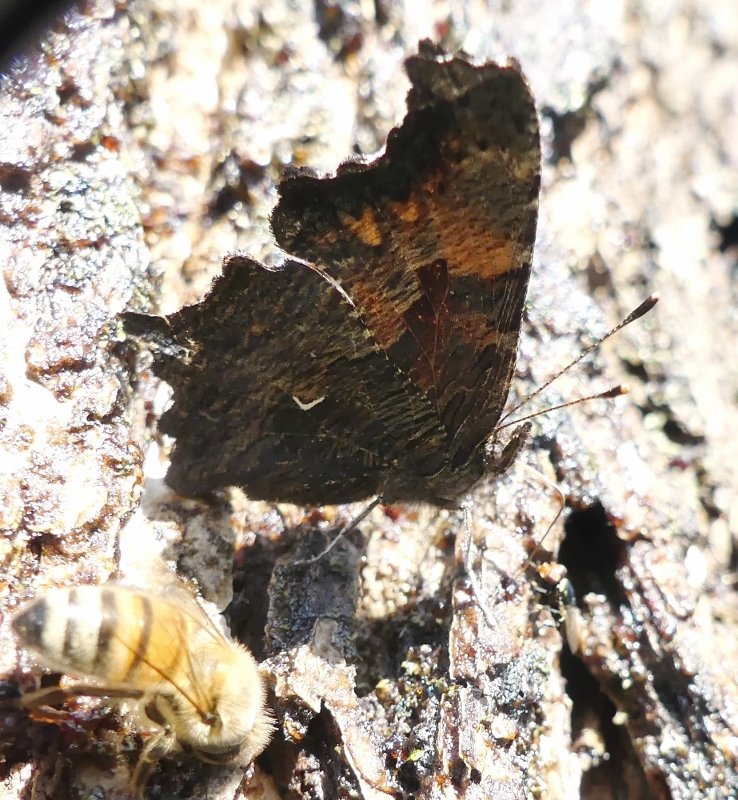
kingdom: Animalia
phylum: Arthropoda
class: Insecta
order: Lepidoptera
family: Nymphalidae
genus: Polygonia
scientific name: Polygonia progne
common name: Gray Comma
